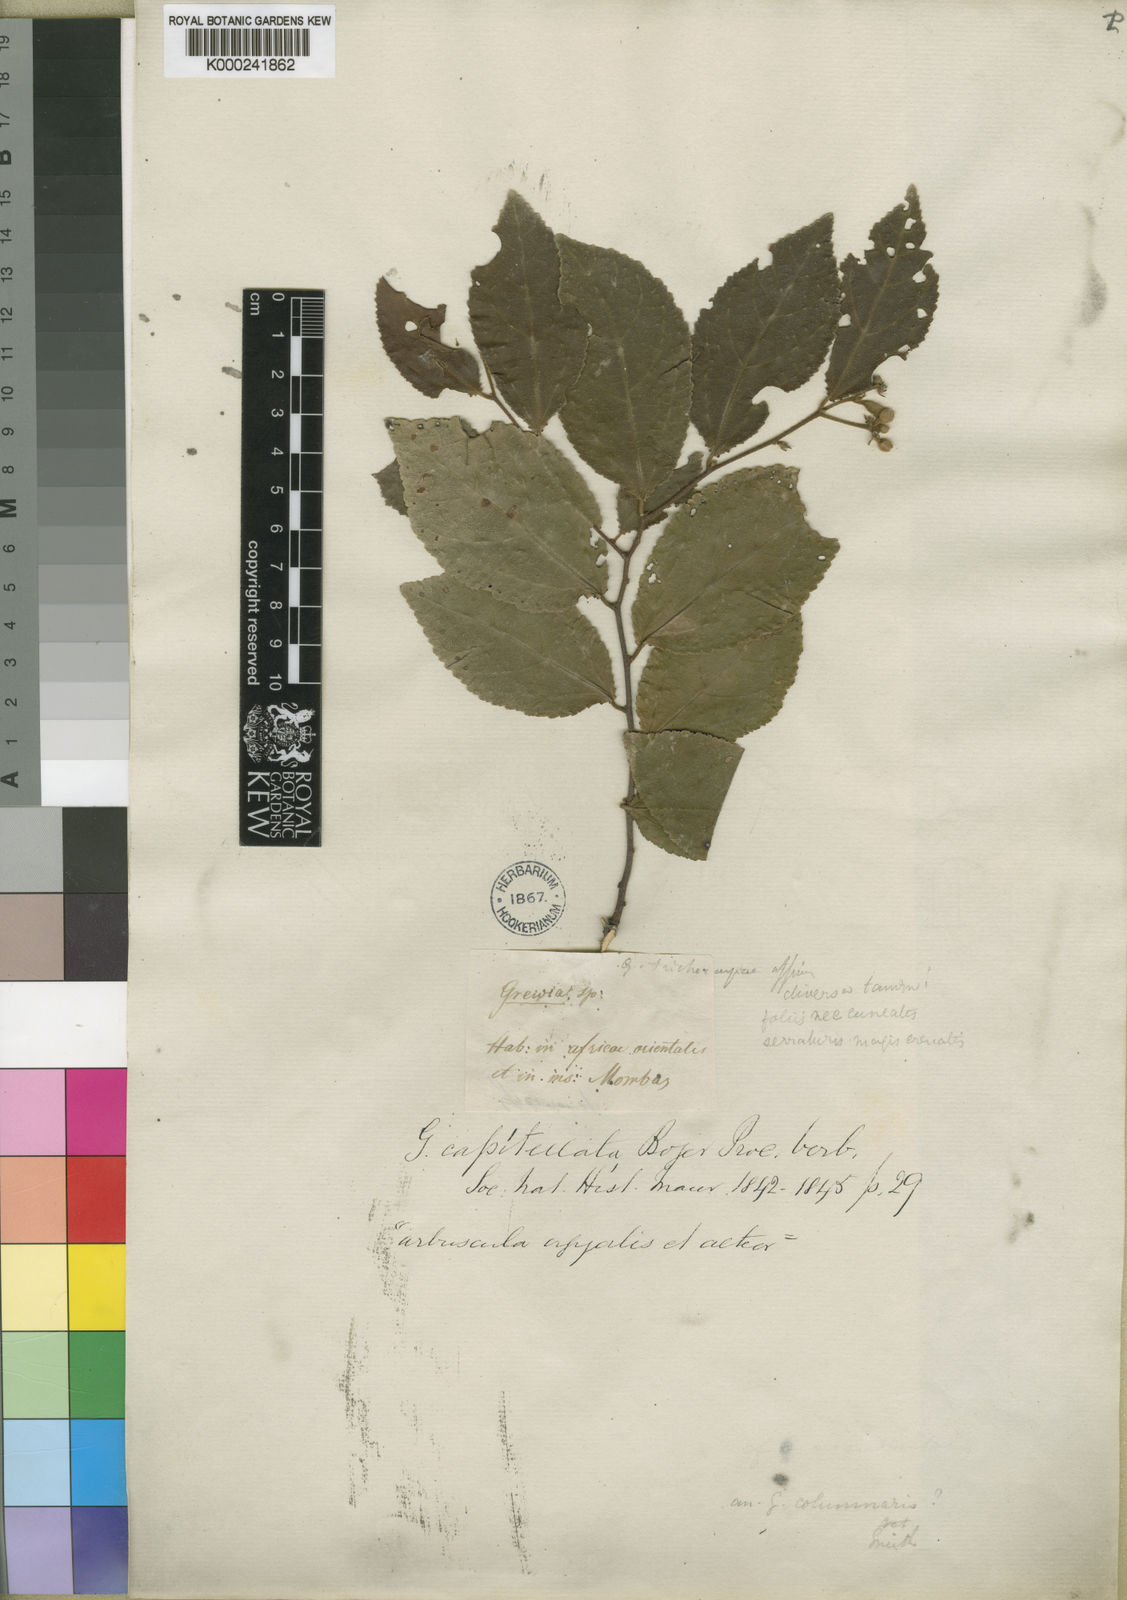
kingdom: Plantae
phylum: Tracheophyta
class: Magnoliopsida
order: Malvales
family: Malvaceae
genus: Grewia
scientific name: Grewia capitellata
